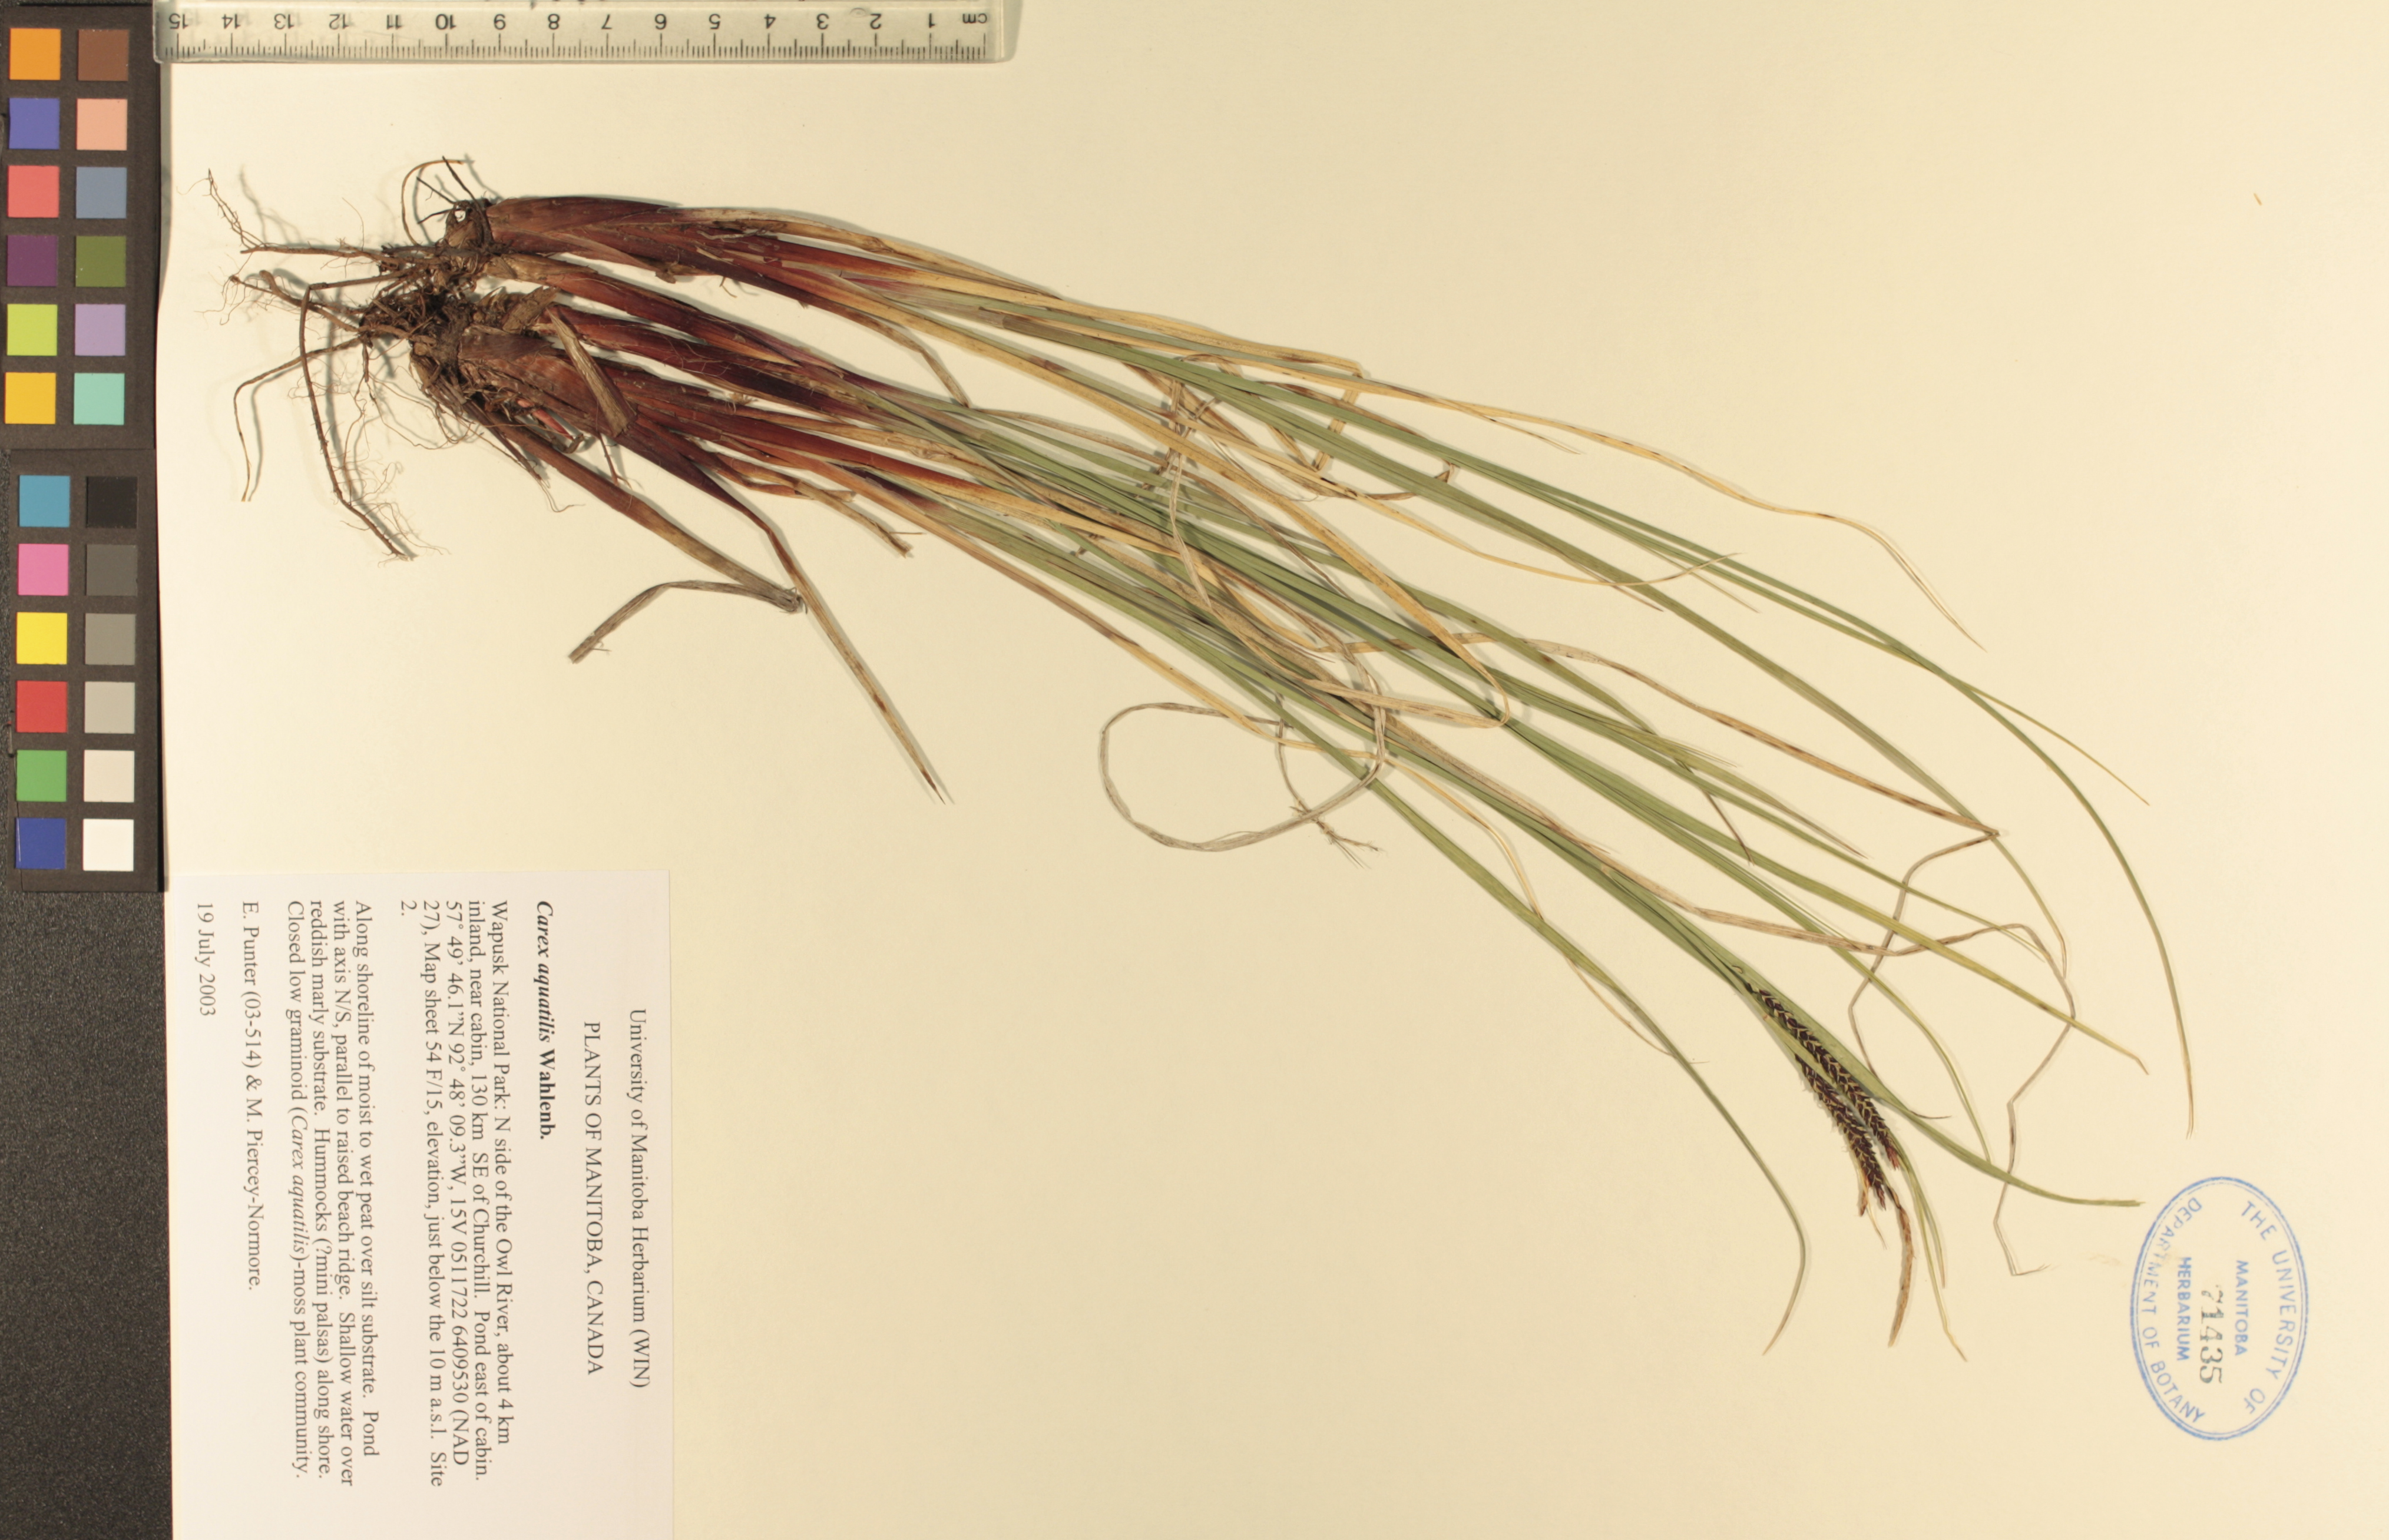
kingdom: Plantae
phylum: Tracheophyta
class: Liliopsida
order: Poales
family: Cyperaceae
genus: Carex
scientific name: Carex aquatilis
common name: Water sedge
